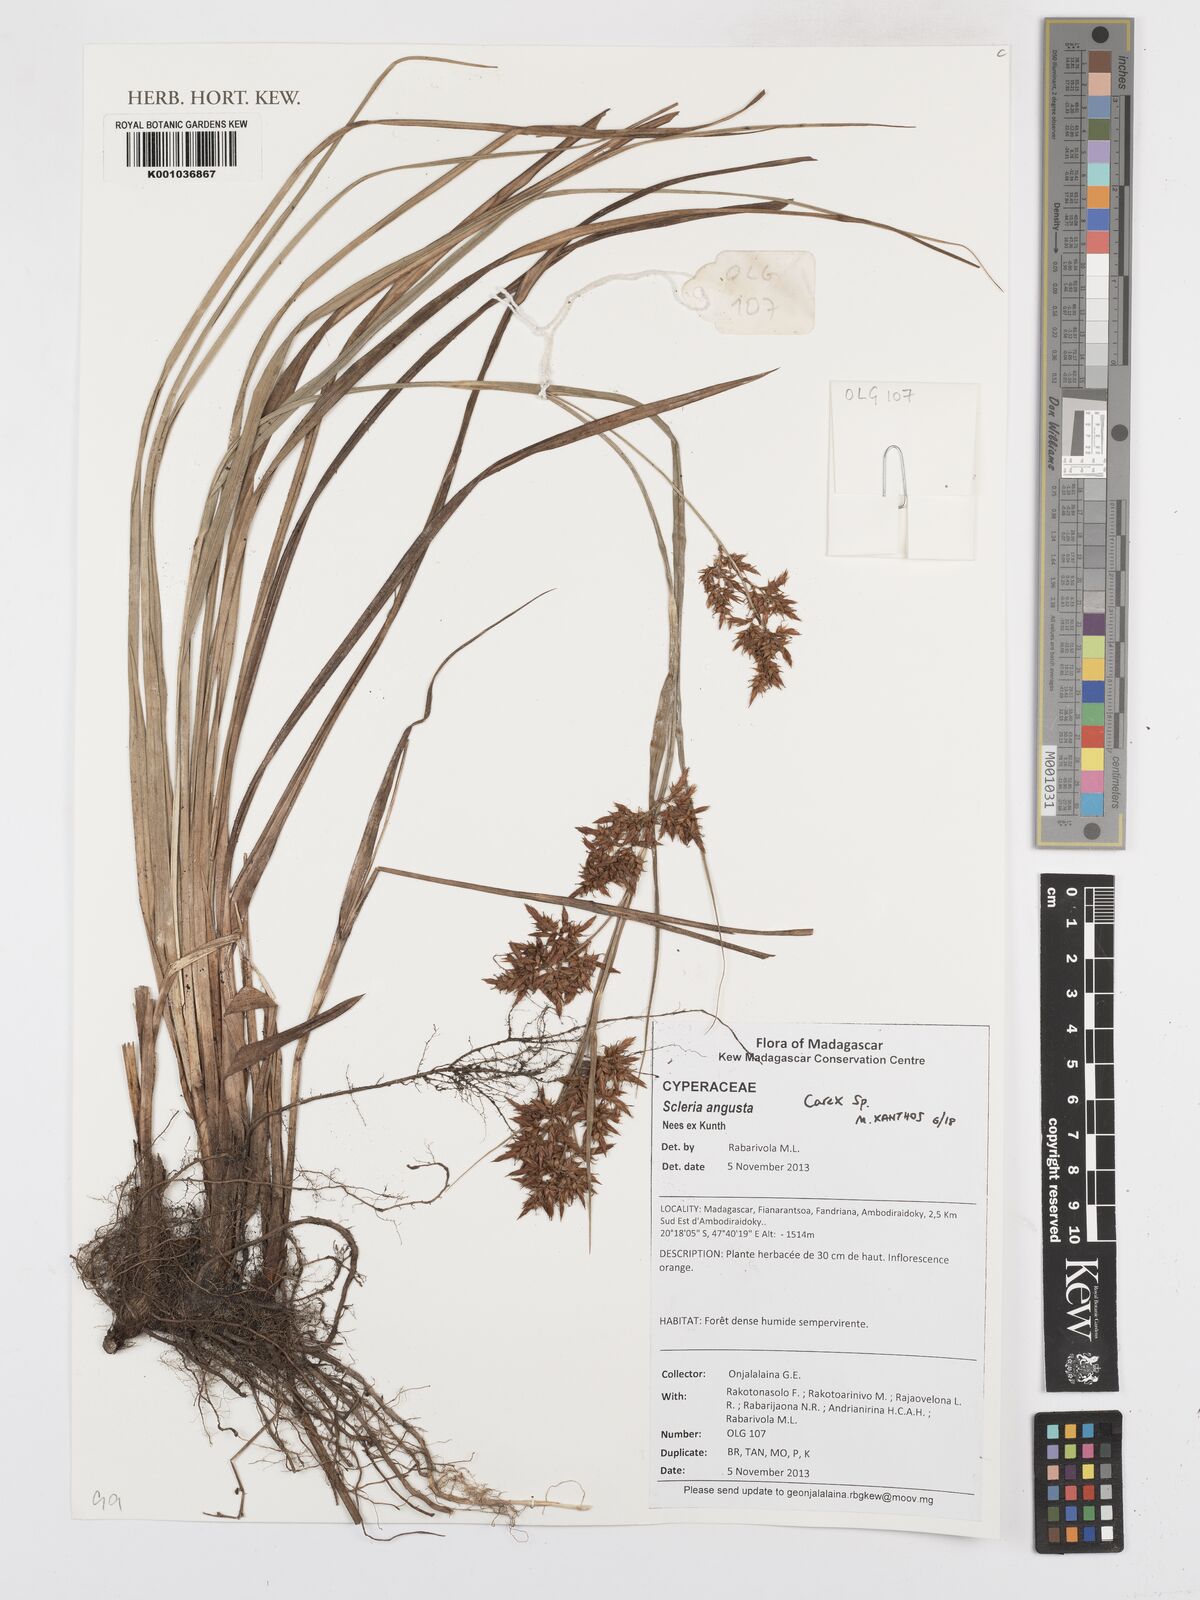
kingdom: Plantae
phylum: Tracheophyta
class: Liliopsida
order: Poales
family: Cyperaceae
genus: Carex
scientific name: Carex
